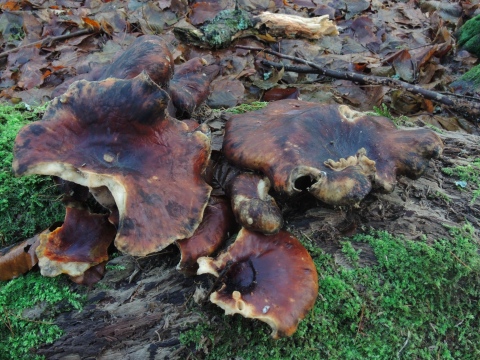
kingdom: Fungi
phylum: Basidiomycota
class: Agaricomycetes
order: Polyporales
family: Polyporaceae
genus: Picipes
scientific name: Picipes badius
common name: kastaniebrun stilkporesvamp
